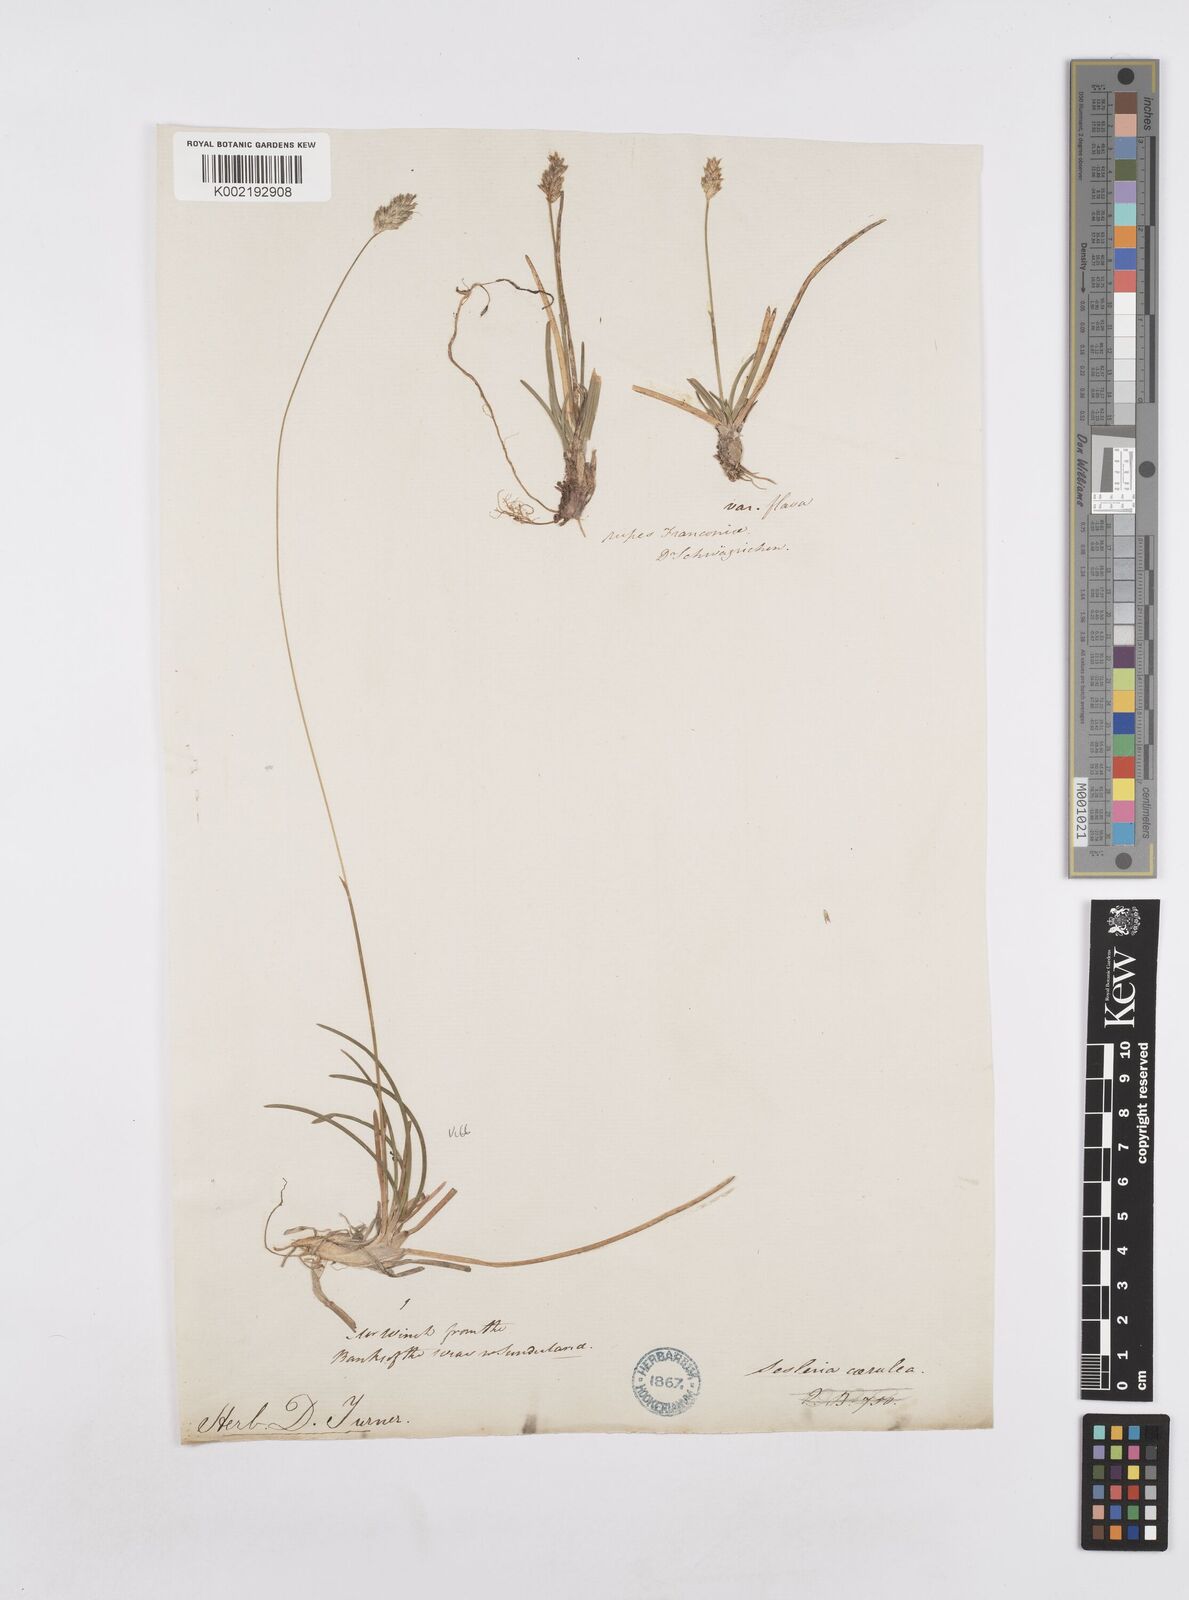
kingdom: Plantae
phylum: Tracheophyta
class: Liliopsida
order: Poales
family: Poaceae
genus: Sesleria
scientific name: Sesleria caerulea
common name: Blue moor-grass
